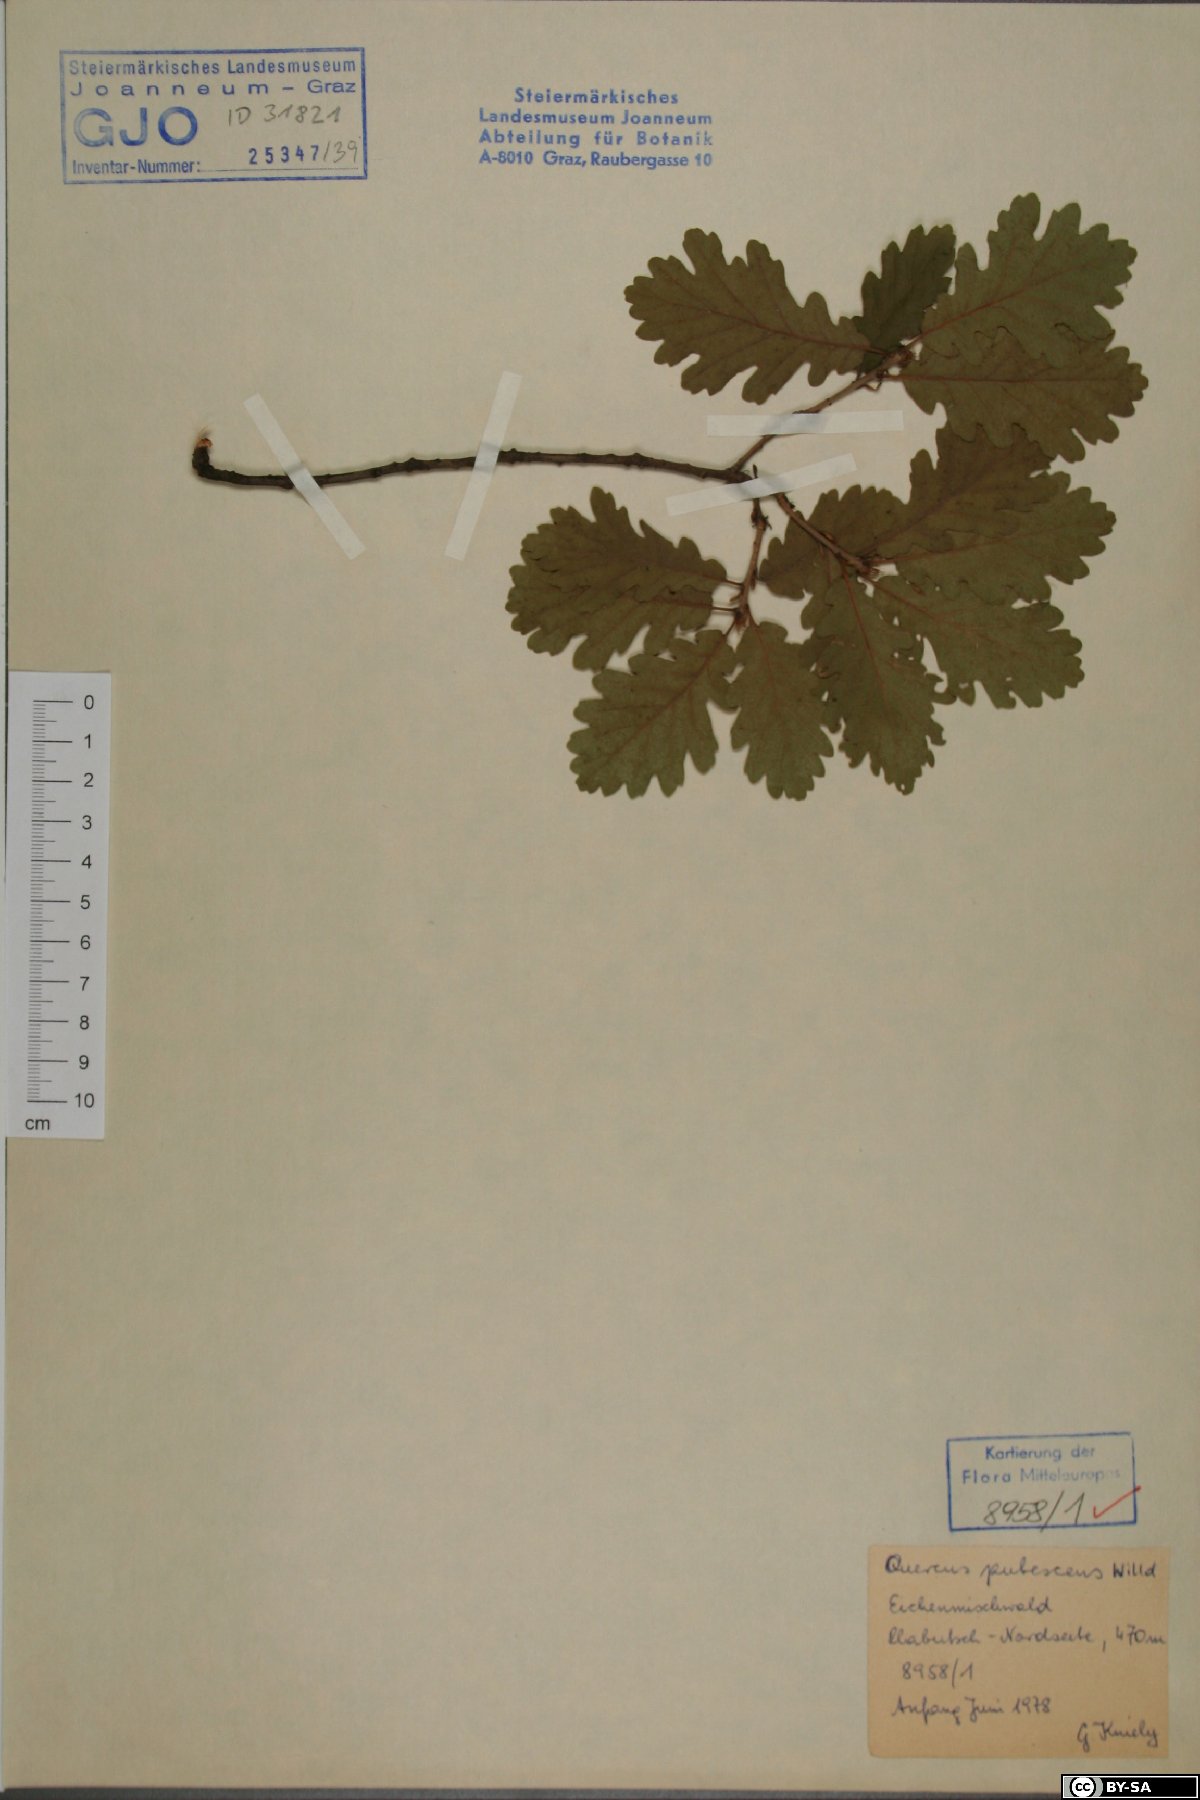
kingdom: Plantae
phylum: Tracheophyta
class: Magnoliopsida
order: Fagales
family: Fagaceae
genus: Quercus
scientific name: Quercus pubescens
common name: Downy oak
